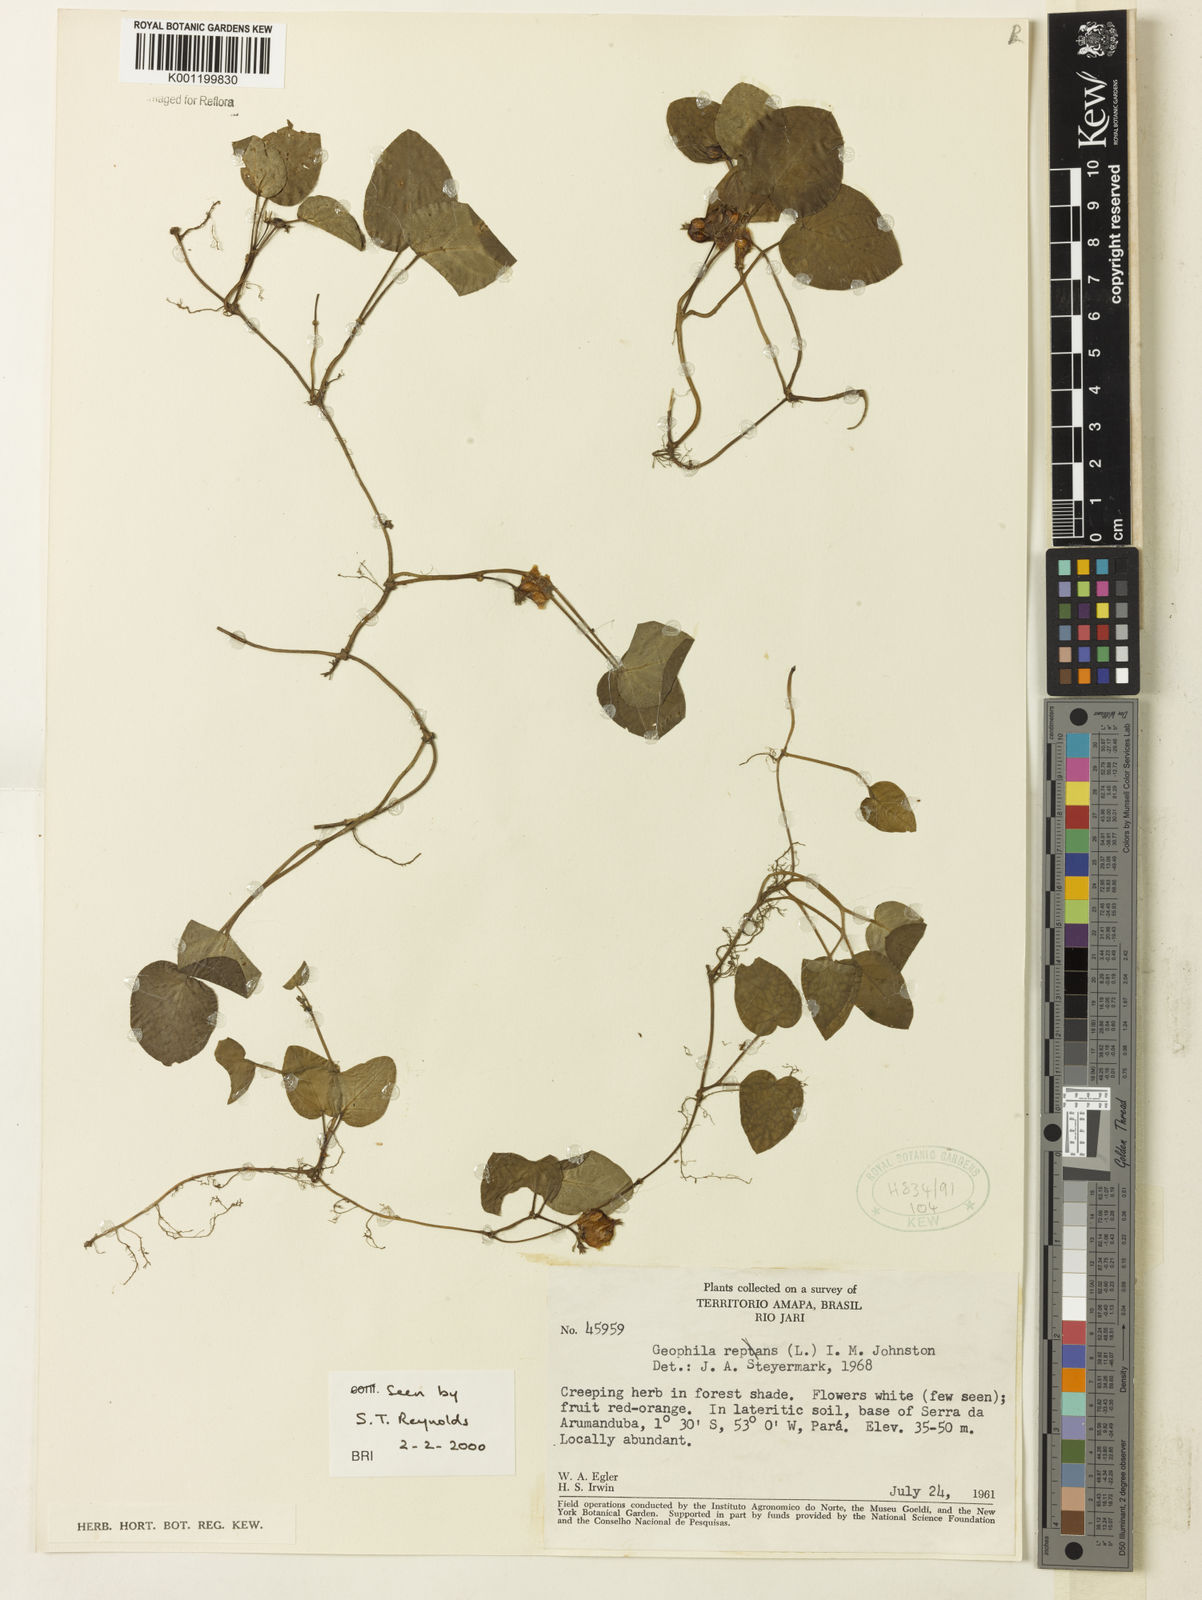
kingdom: Plantae
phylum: Tracheophyta
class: Magnoliopsida
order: Gentianales
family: Rubiaceae
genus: Geophila
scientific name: Geophila repens
